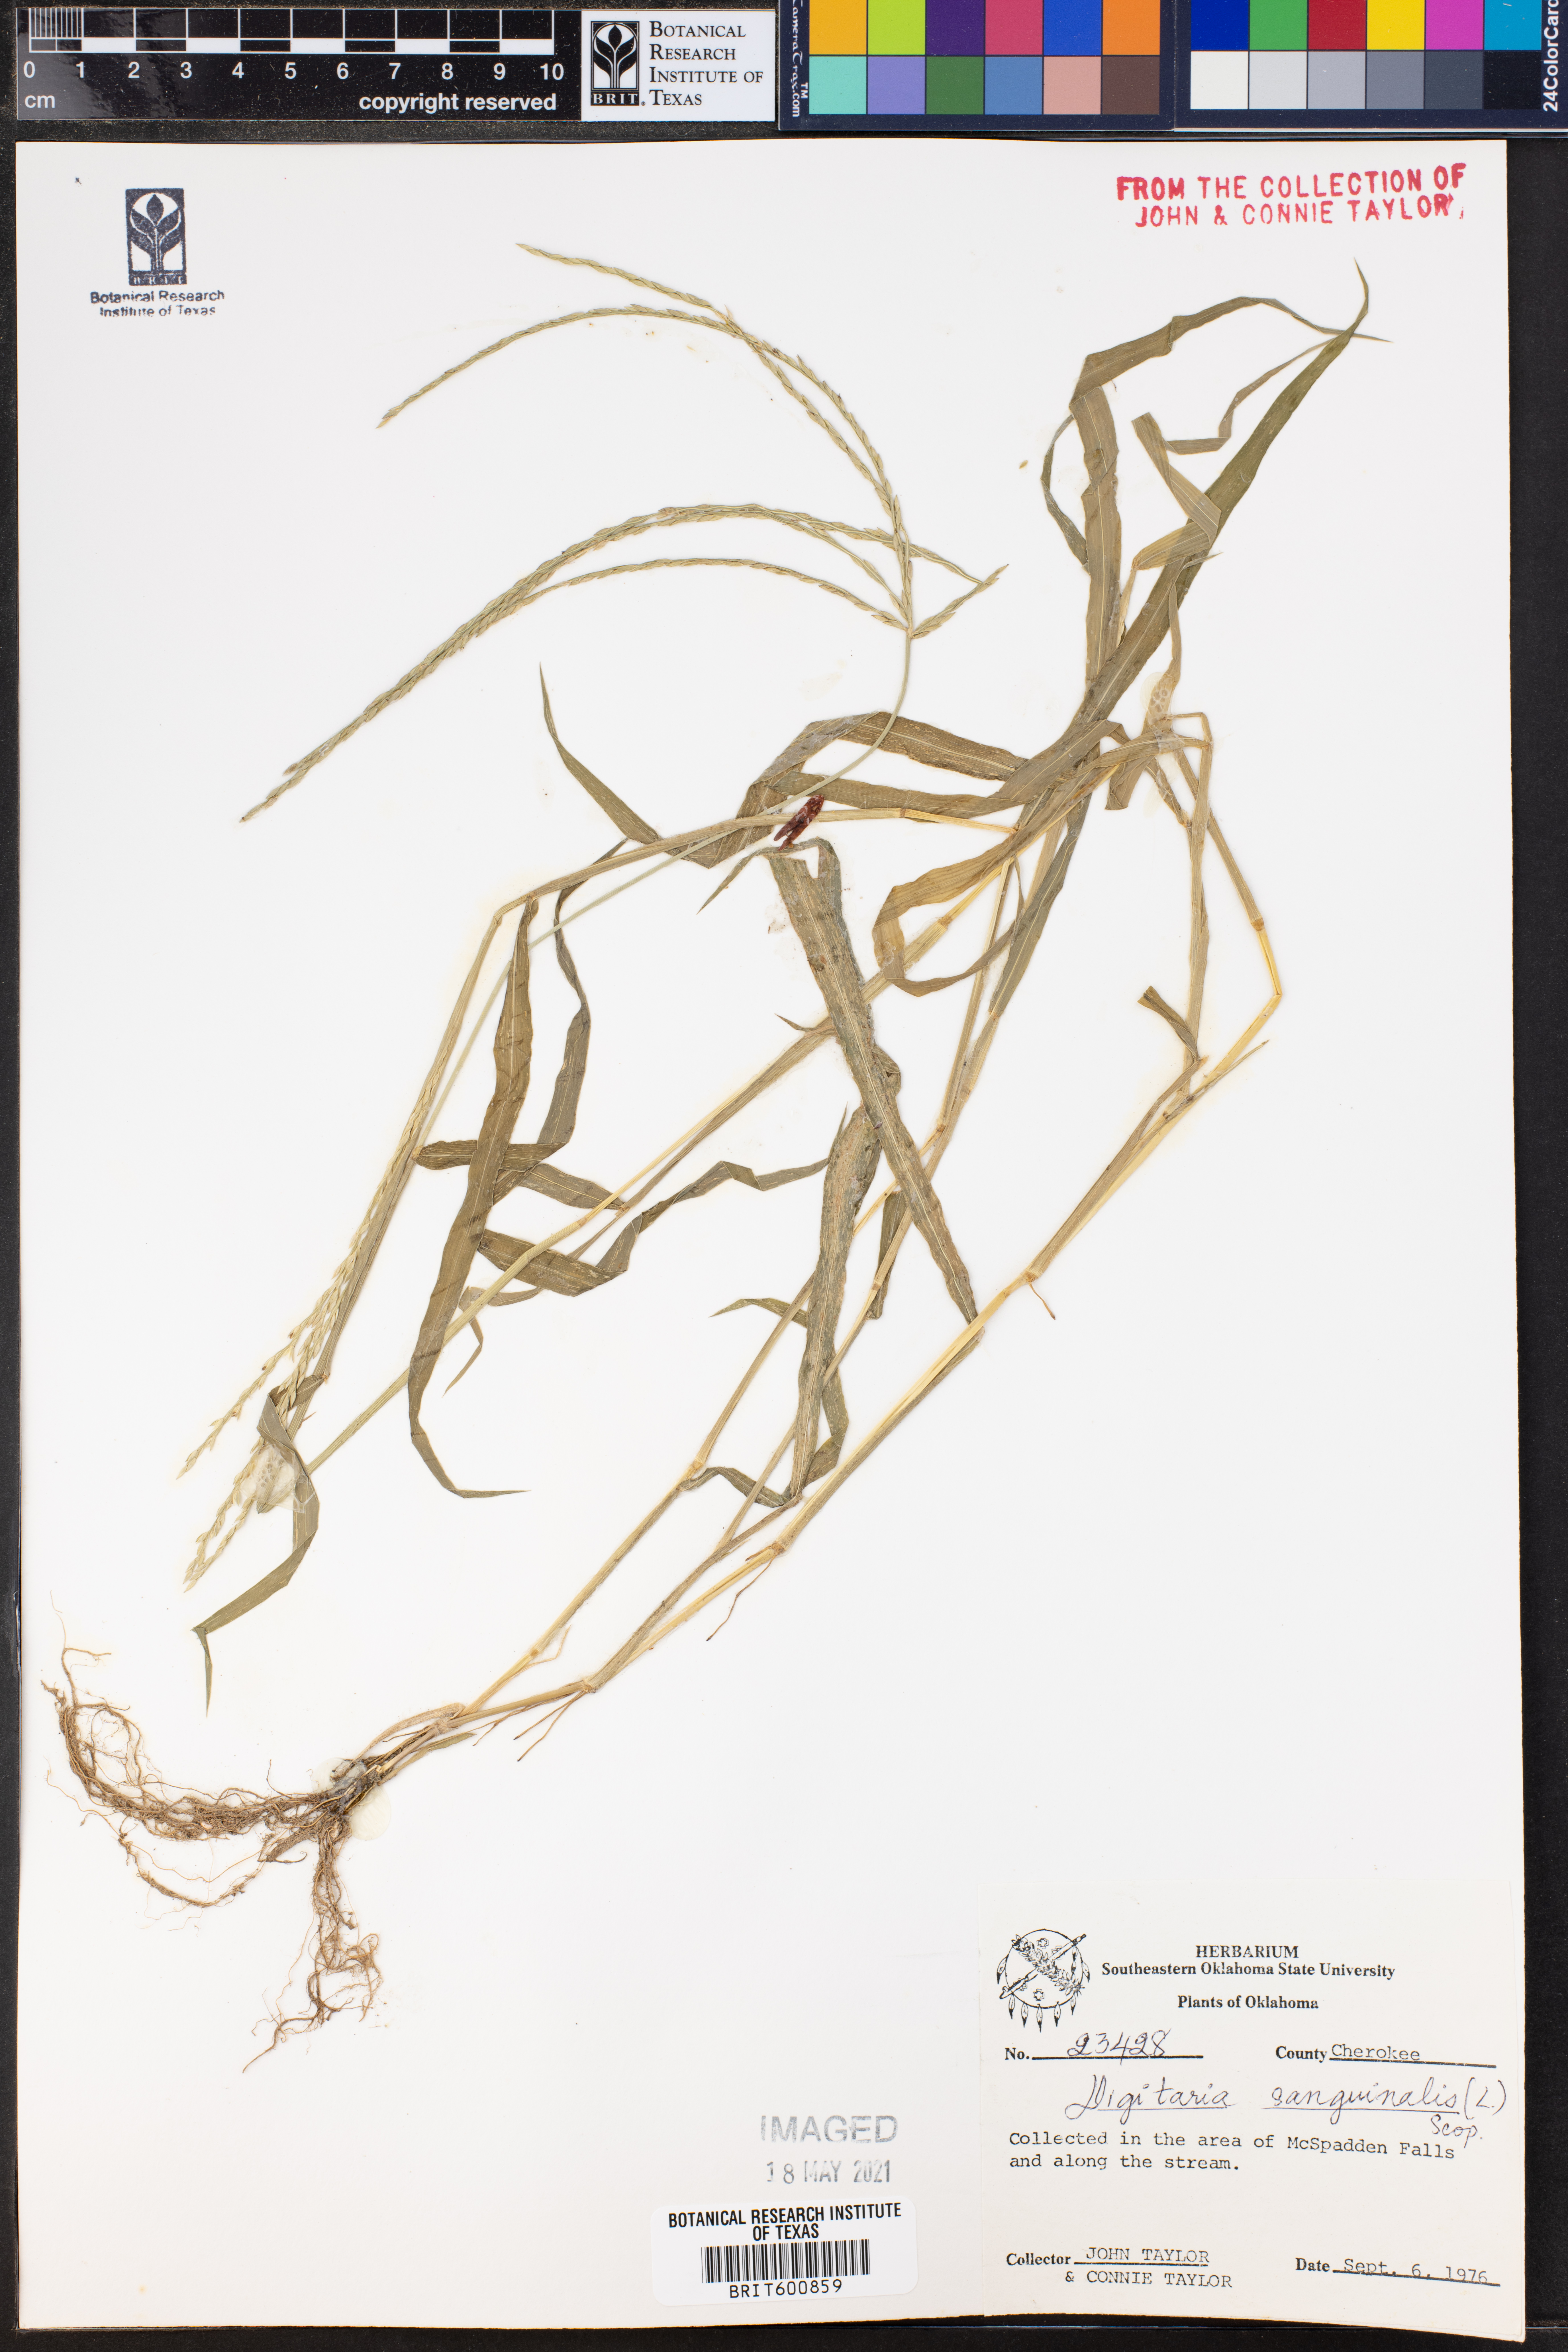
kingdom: Plantae
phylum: Tracheophyta
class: Liliopsida
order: Poales
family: Poaceae
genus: Digitaria
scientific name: Digitaria sanguinalis
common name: Hairy crabgrass
